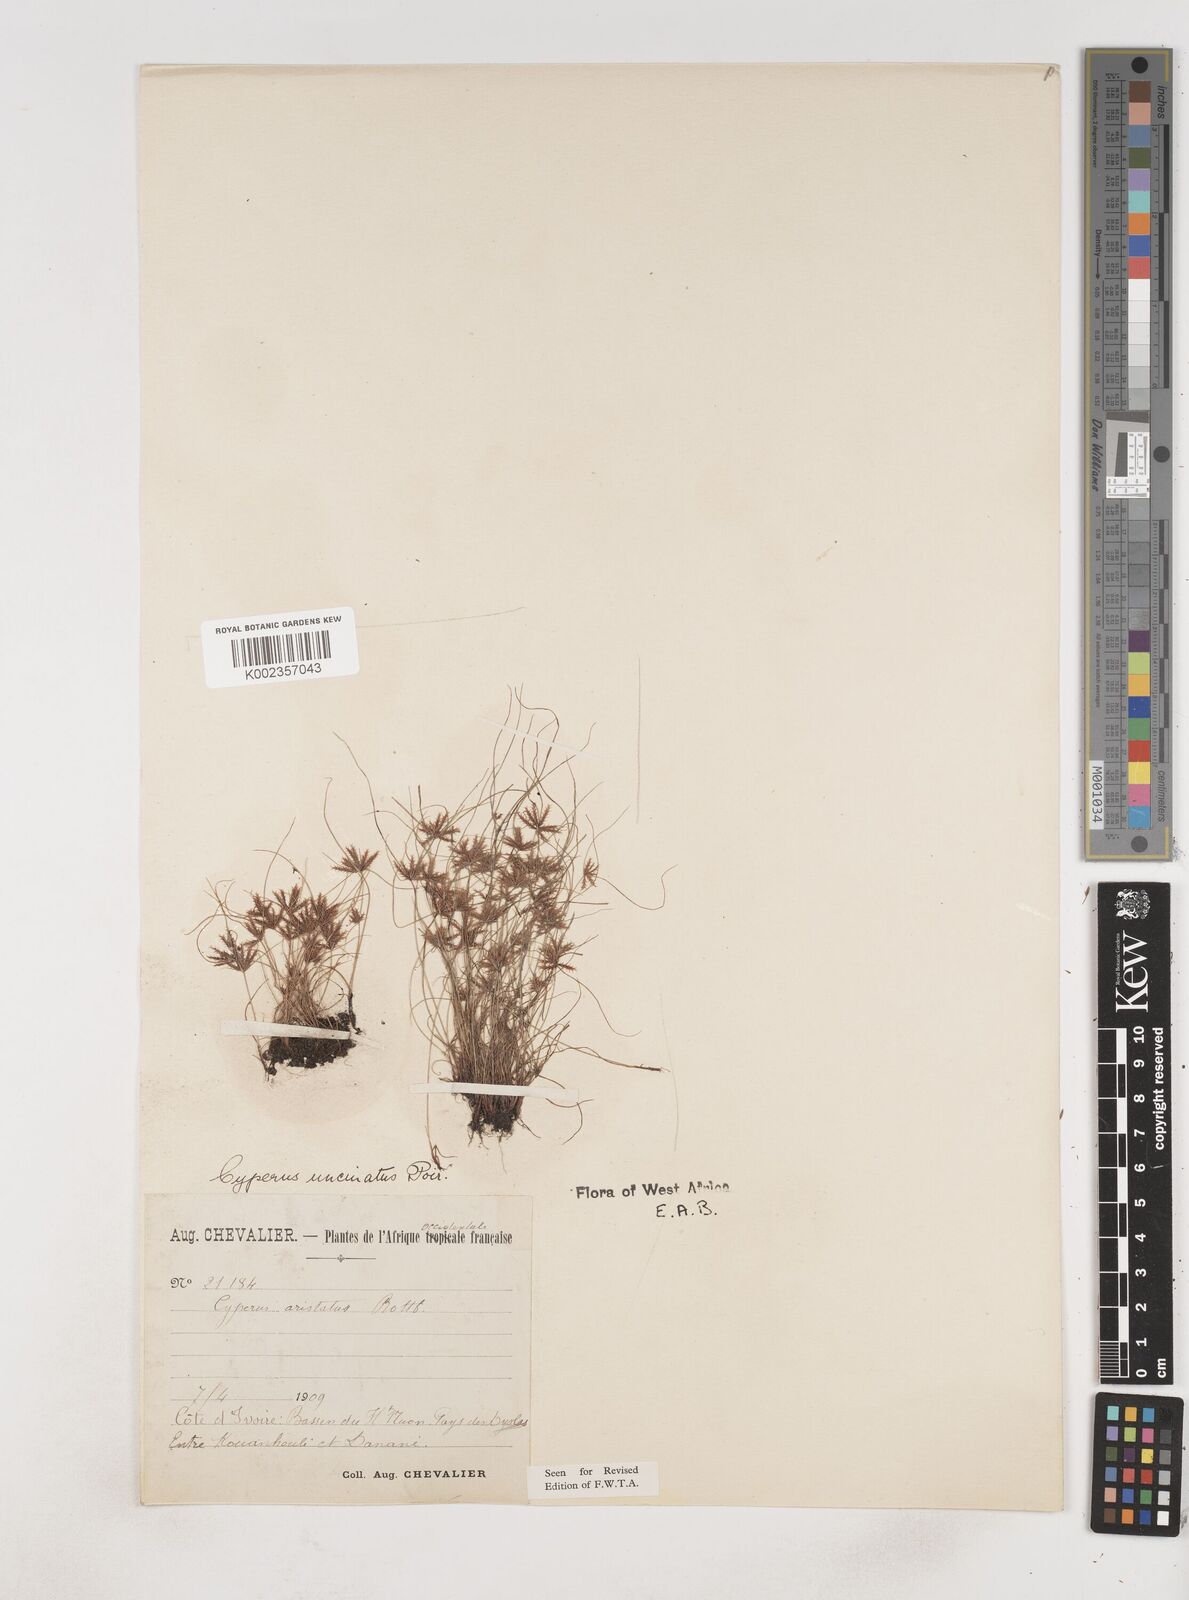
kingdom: Plantae
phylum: Tracheophyta
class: Liliopsida
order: Poales
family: Cyperaceae
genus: Cyperus
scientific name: Cyperus
